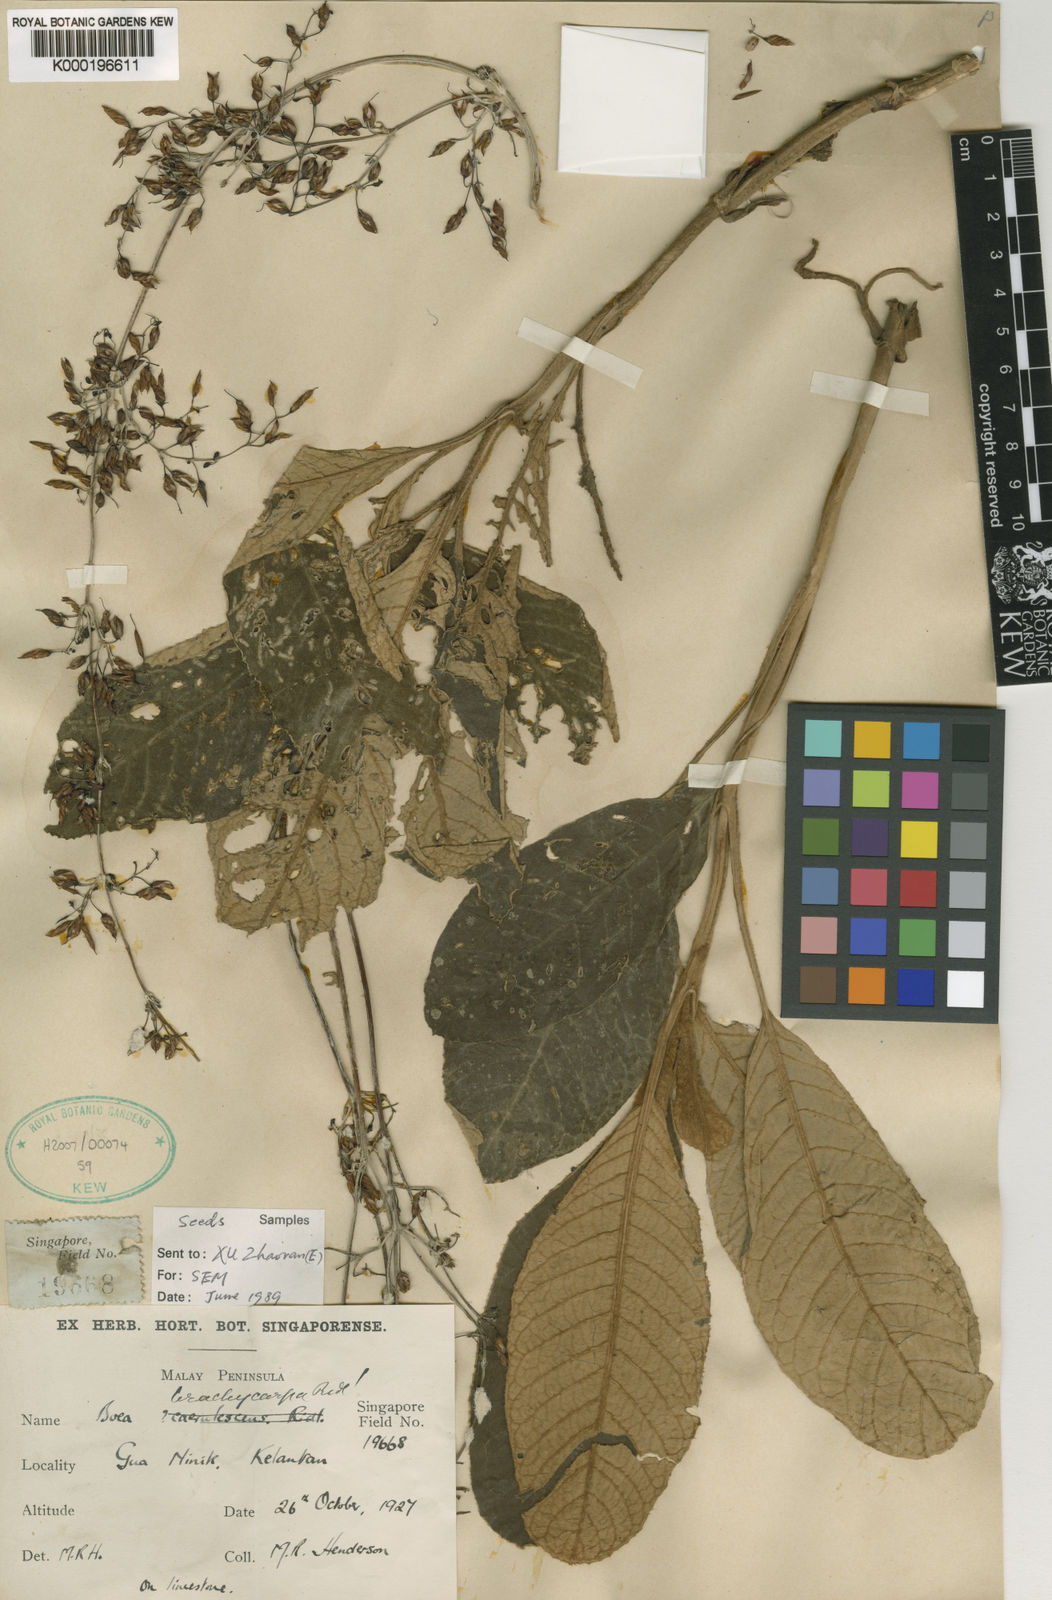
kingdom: Plantae
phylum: Tracheophyta
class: Magnoliopsida
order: Lamiales
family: Gesneriaceae
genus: Paraboea
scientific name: Paraboea brachycarpa
